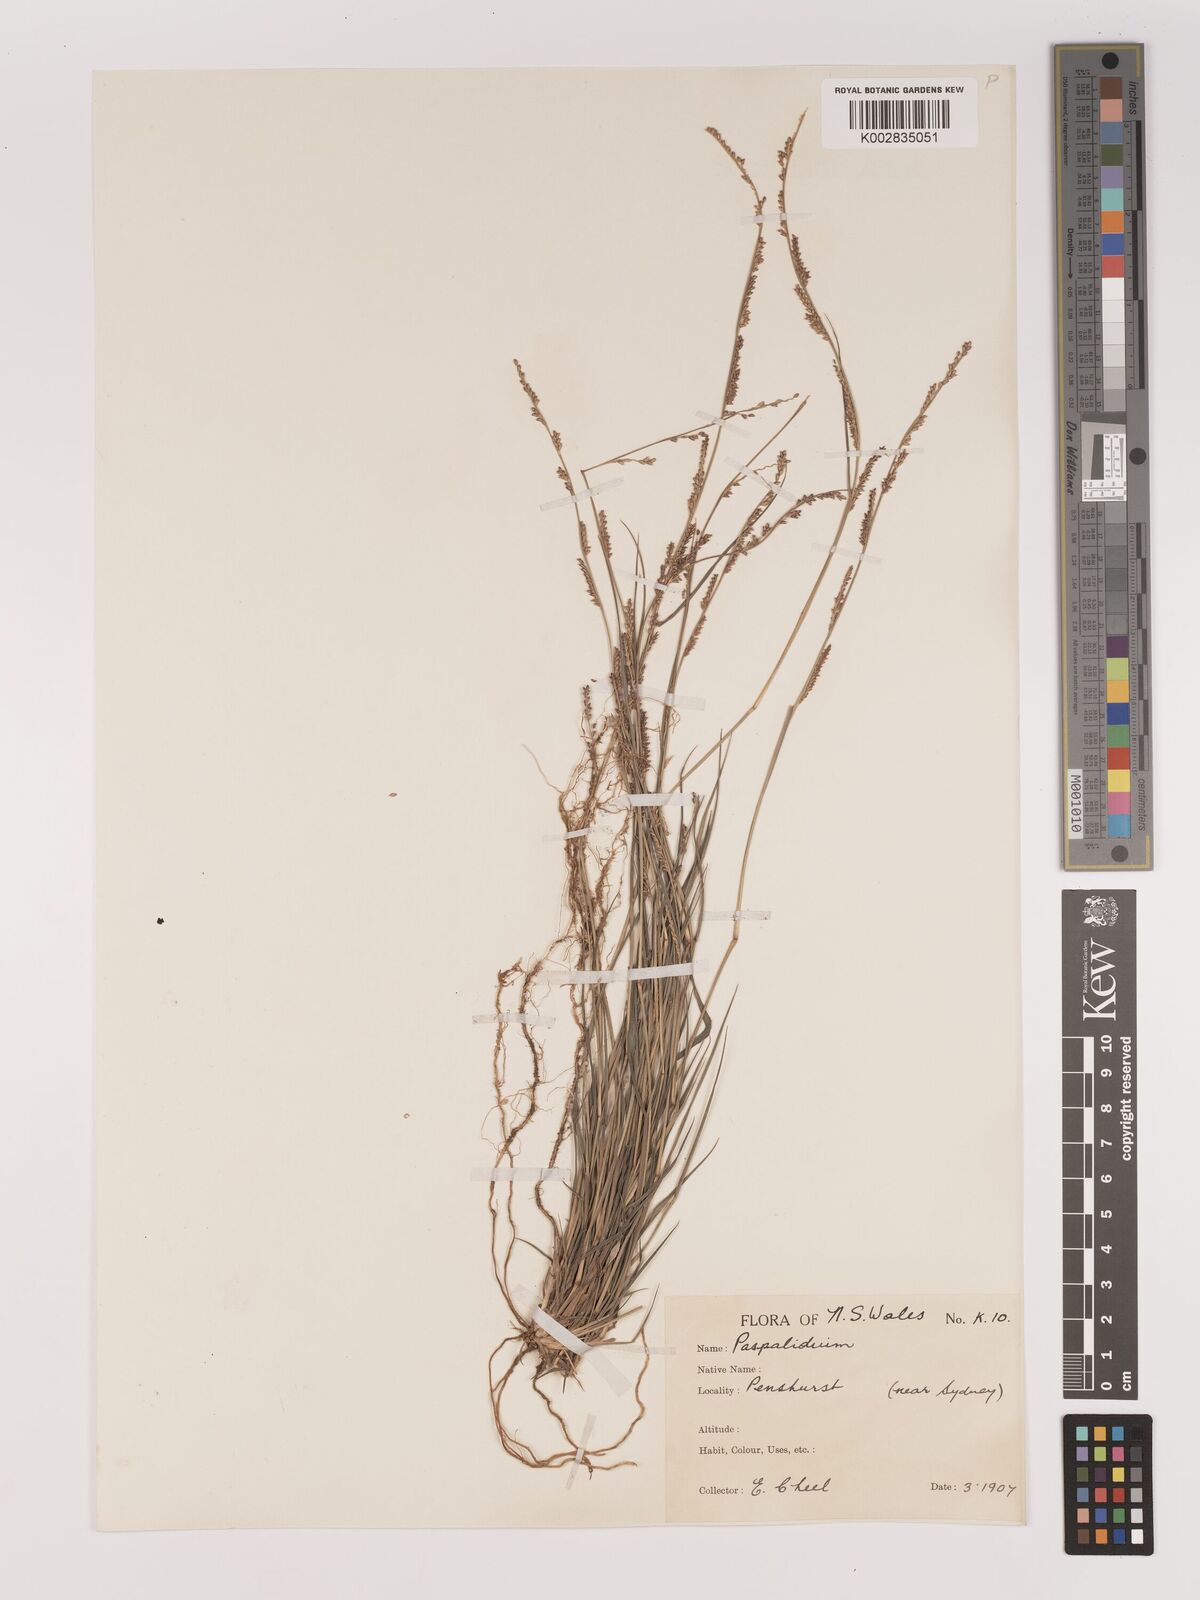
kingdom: Plantae
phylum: Tracheophyta
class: Liliopsida
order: Poales
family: Poaceae
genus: Setaria
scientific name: Setaria
